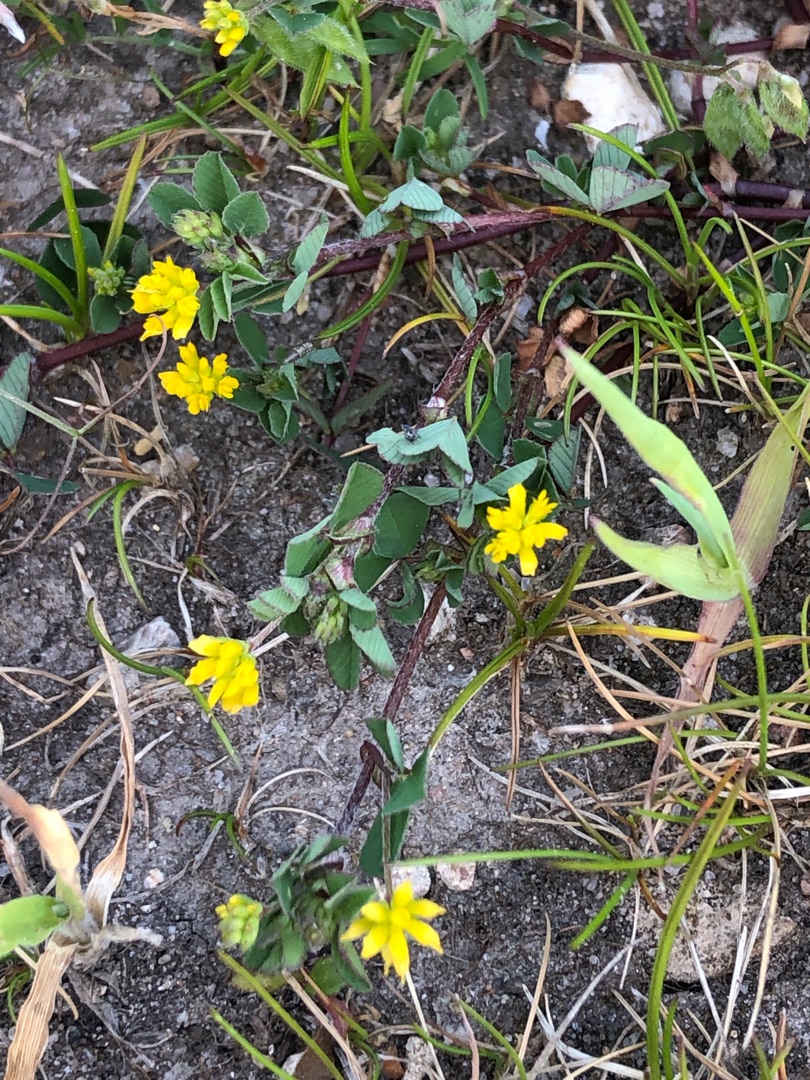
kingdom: Plantae
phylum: Tracheophyta
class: Magnoliopsida
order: Fabales
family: Fabaceae
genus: Trifolium
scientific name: Trifolium dubium
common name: Fin kløver
